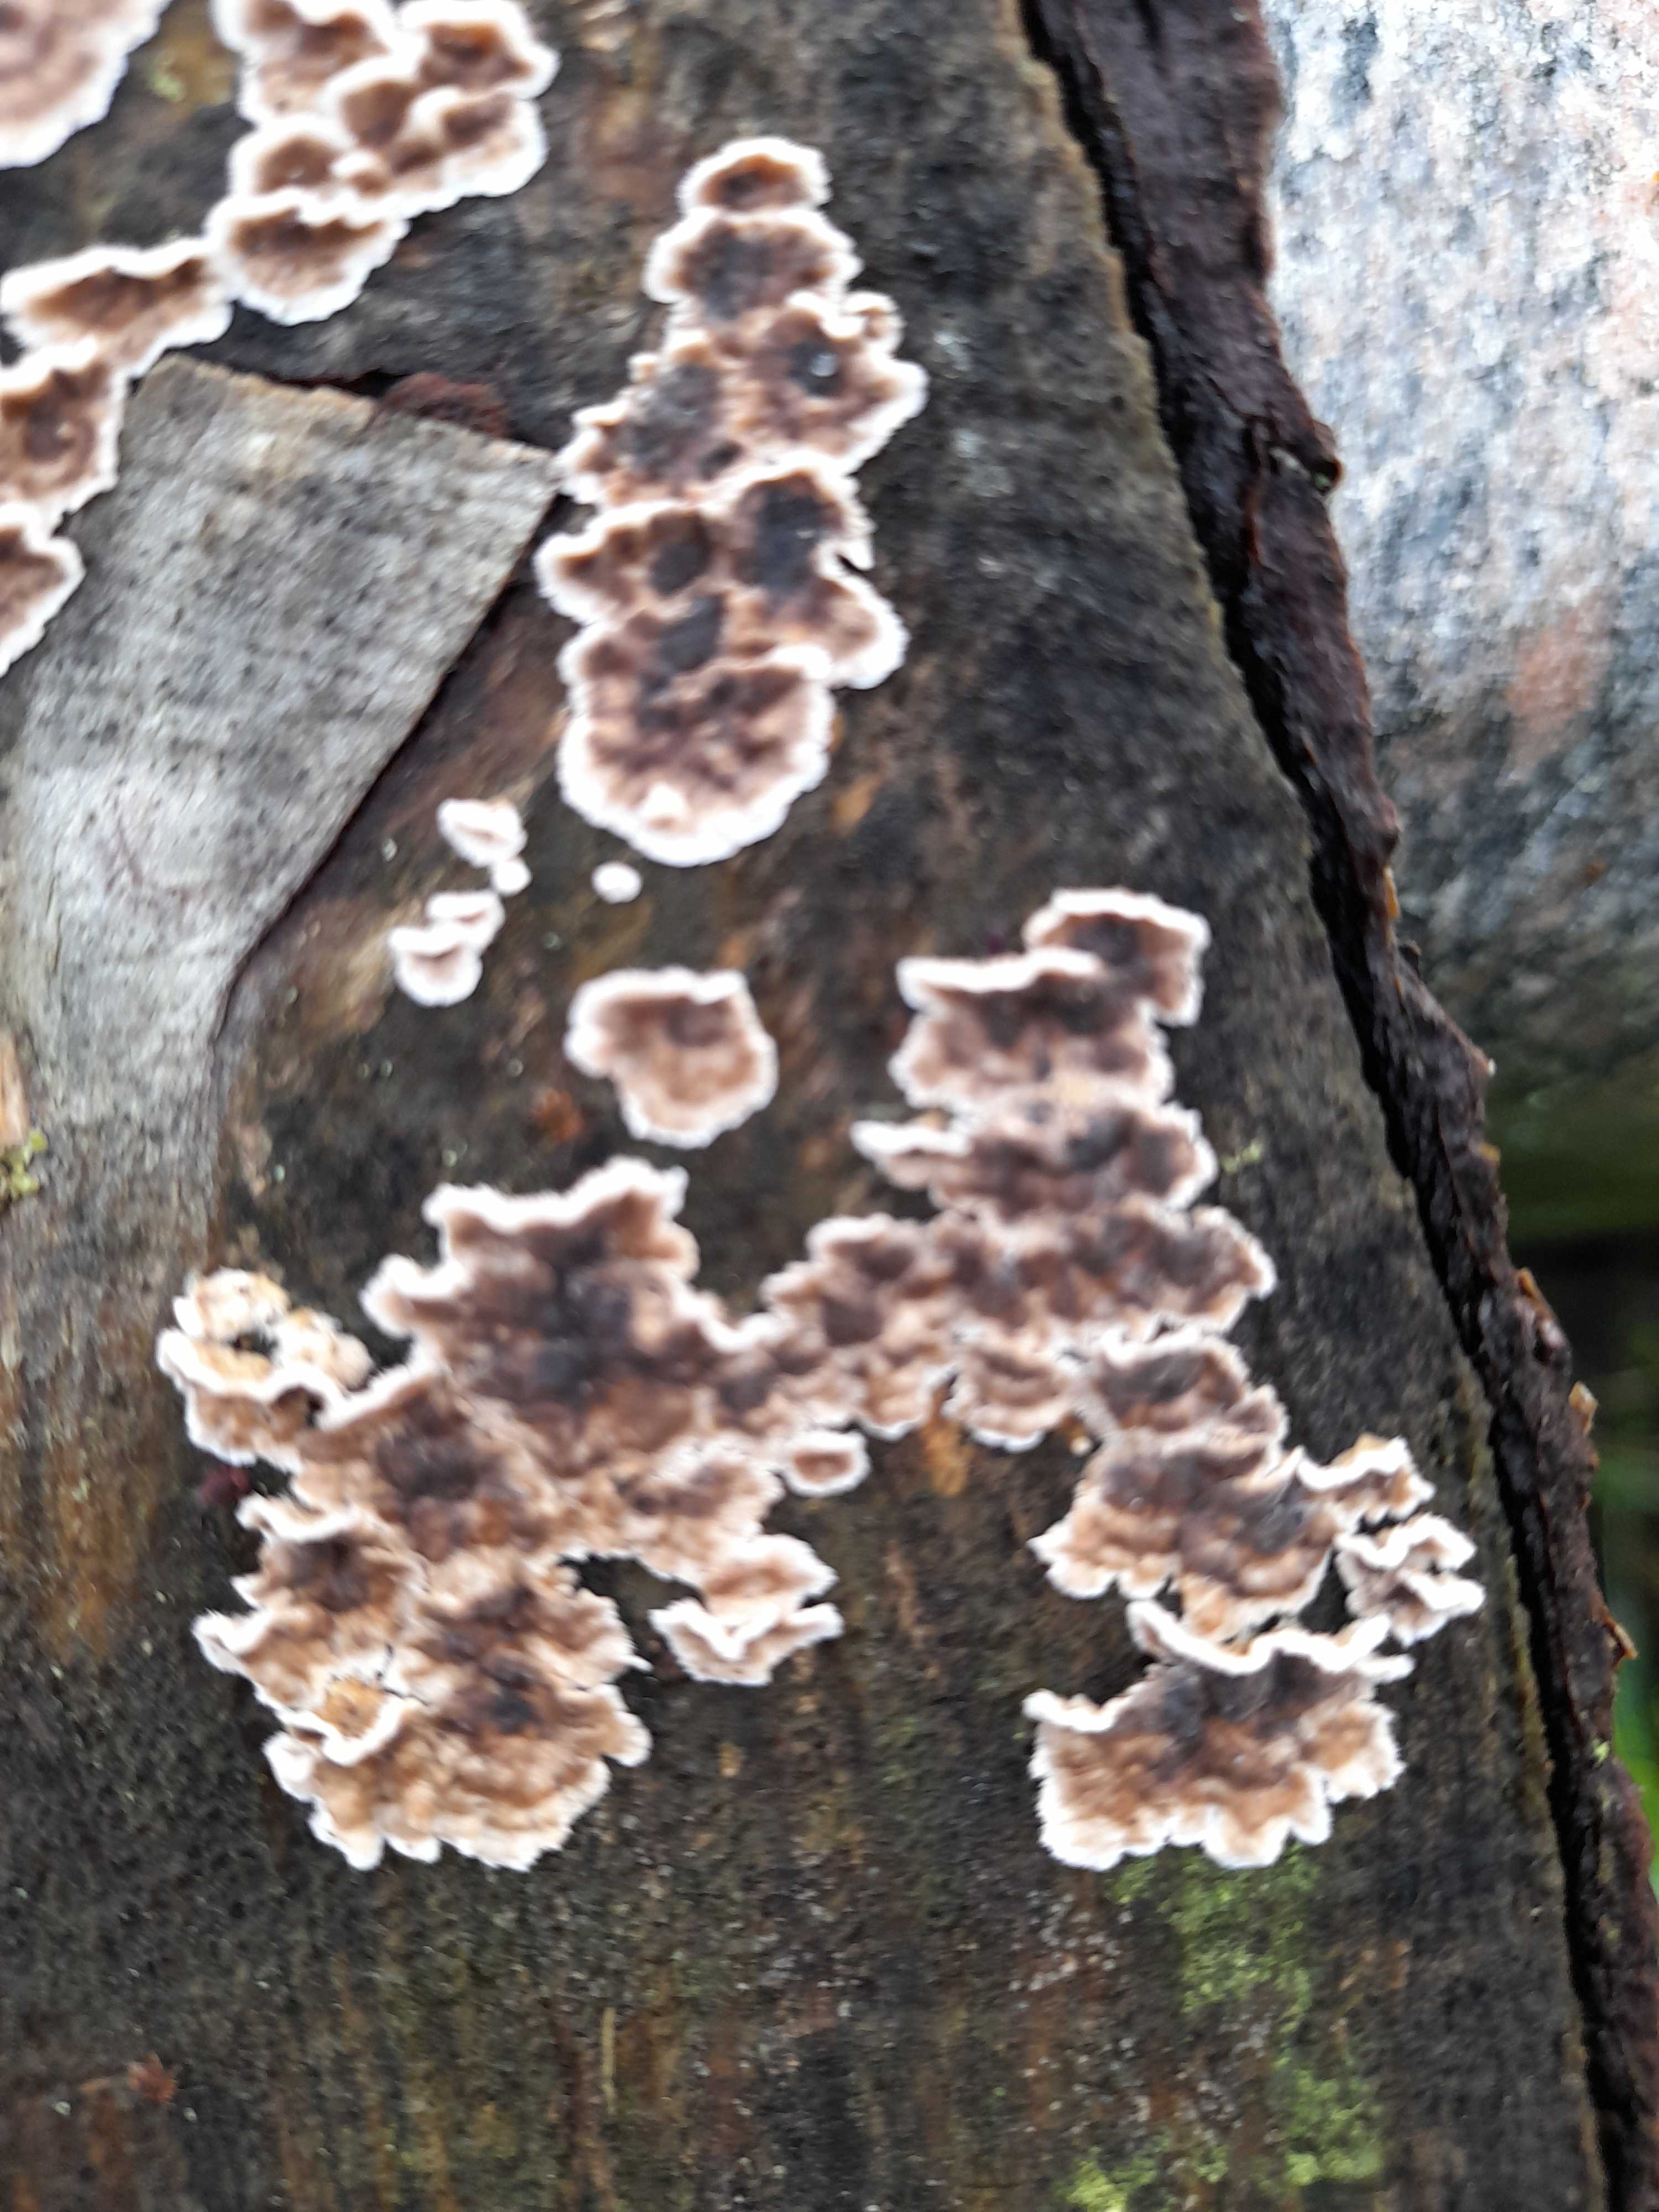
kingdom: Fungi
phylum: Basidiomycota
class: Agaricomycetes
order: Agaricales
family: Cyphellaceae
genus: Chondrostereum
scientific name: Chondrostereum purpureum
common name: purpurlædersvamp
